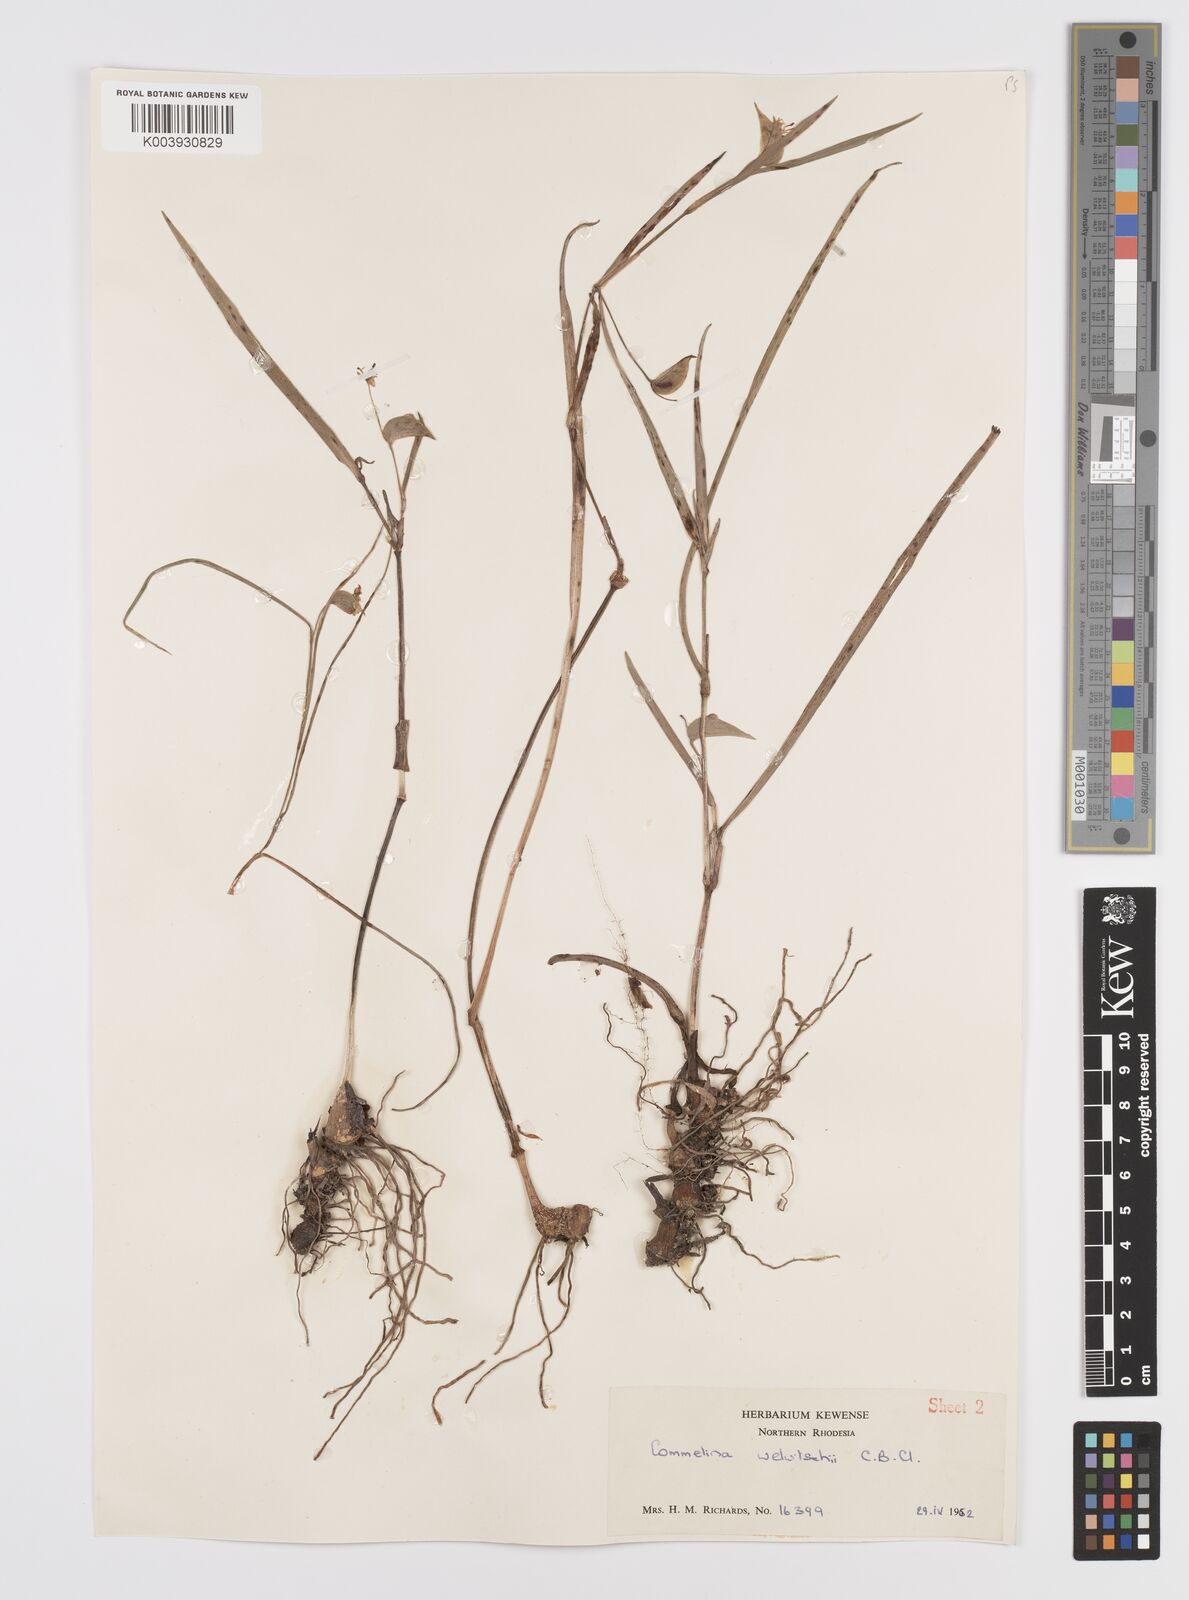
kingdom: Plantae
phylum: Tracheophyta
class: Liliopsida
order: Commelinales
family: Commelinaceae
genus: Commelina
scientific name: Commelina welwitschii
